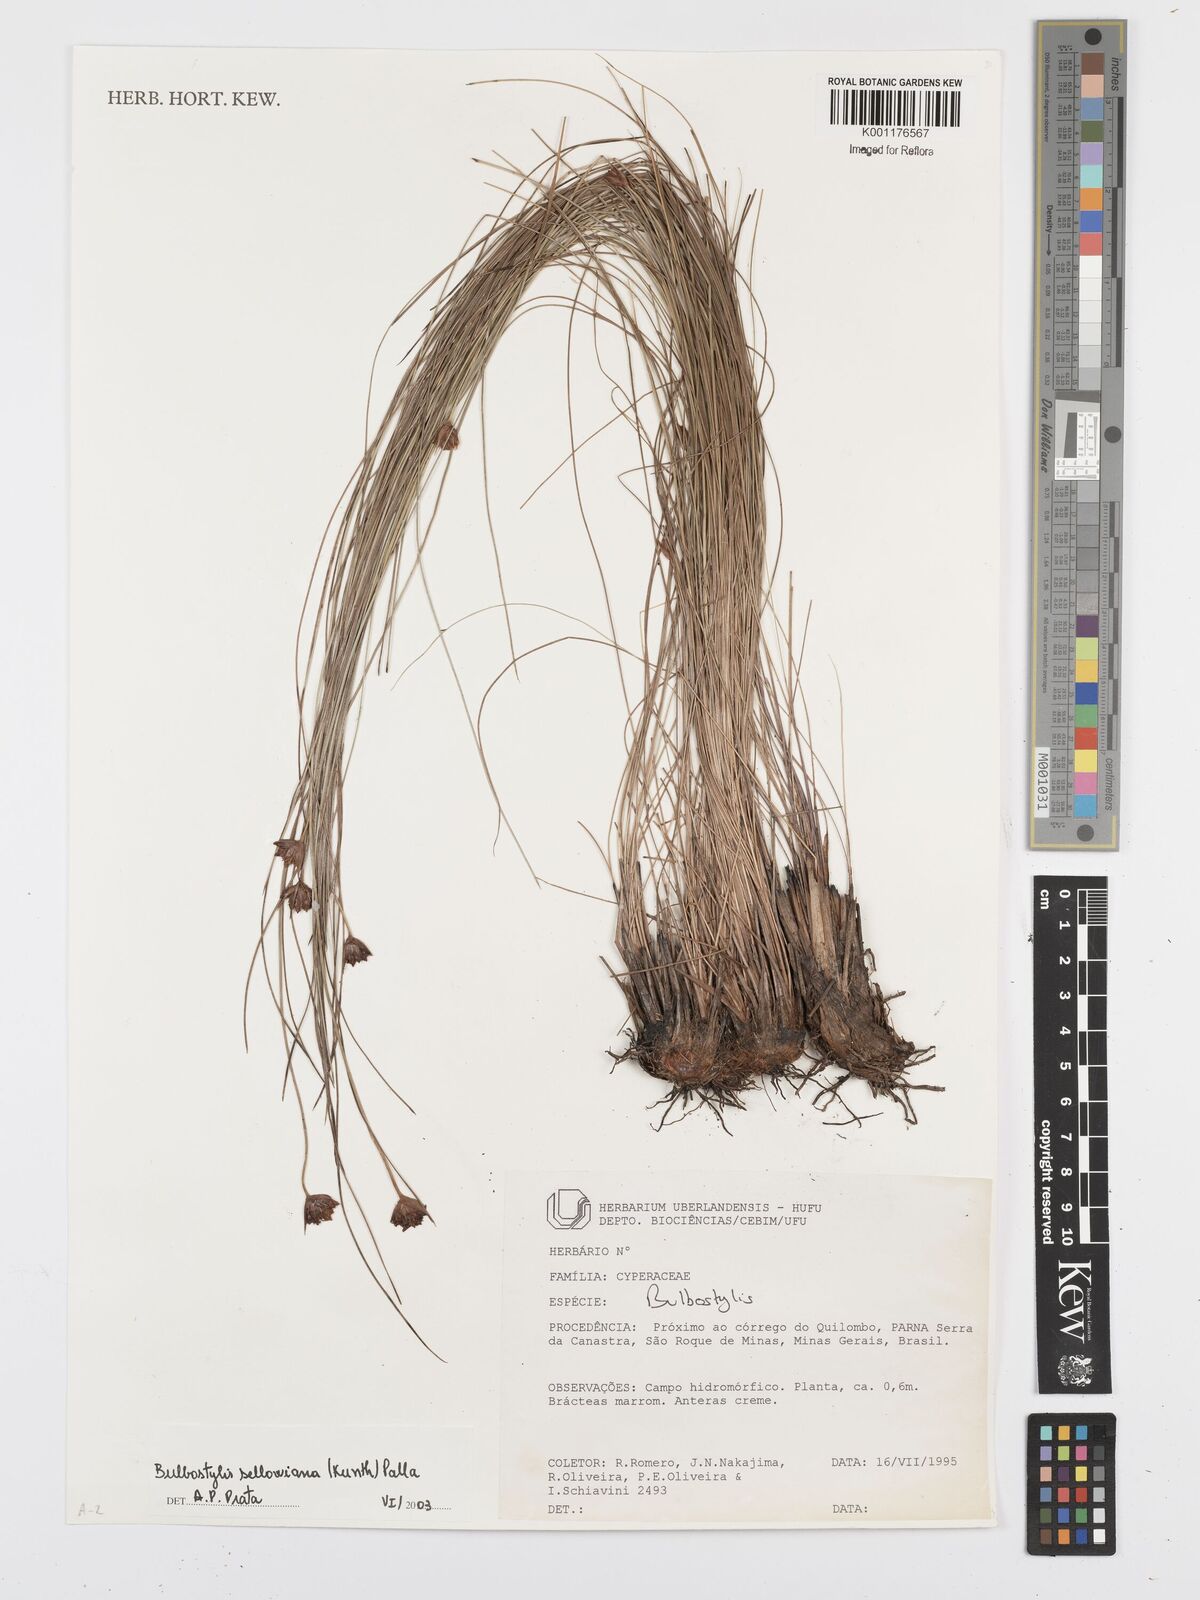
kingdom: Plantae
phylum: Tracheophyta
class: Liliopsida
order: Poales
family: Cyperaceae
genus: Bulbostylis
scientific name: Bulbostylis sellowiana
